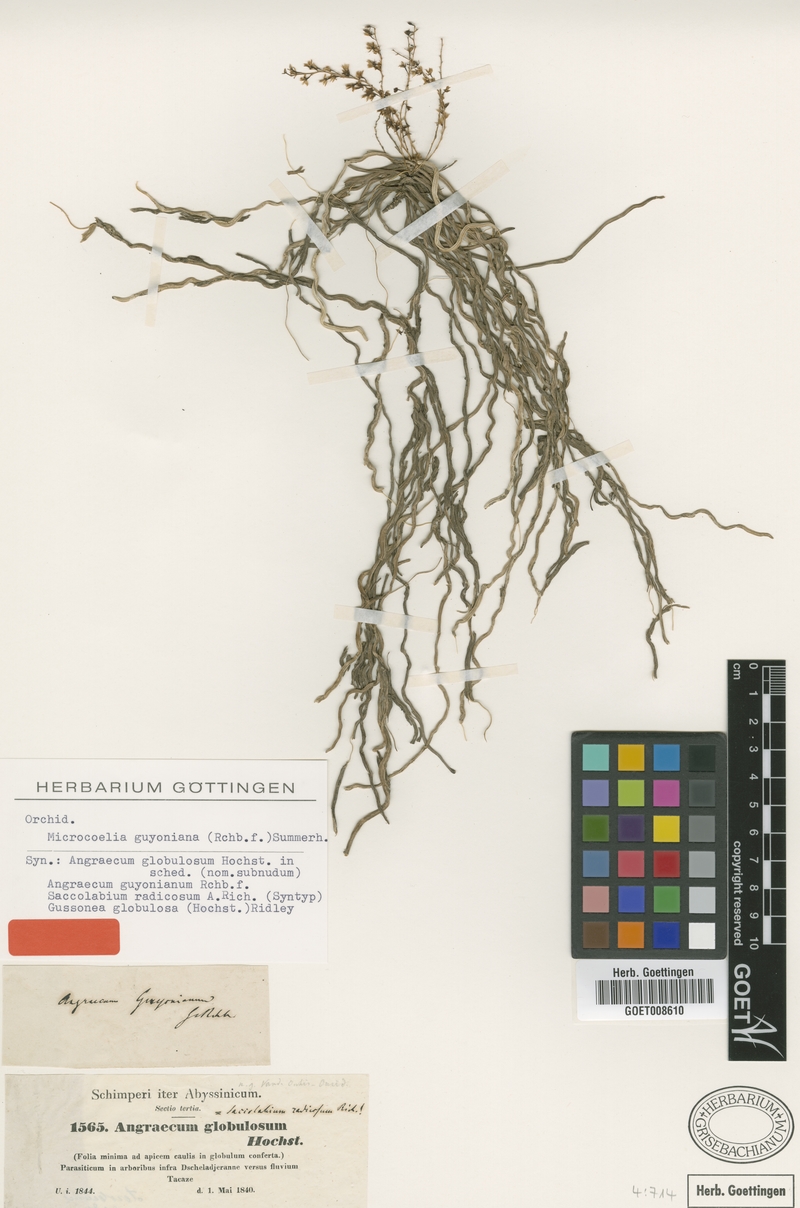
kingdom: Plantae
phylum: Tracheophyta
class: Liliopsida
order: Asparagales
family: Orchidaceae
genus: Microcoelia
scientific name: Microcoelia globulosa
